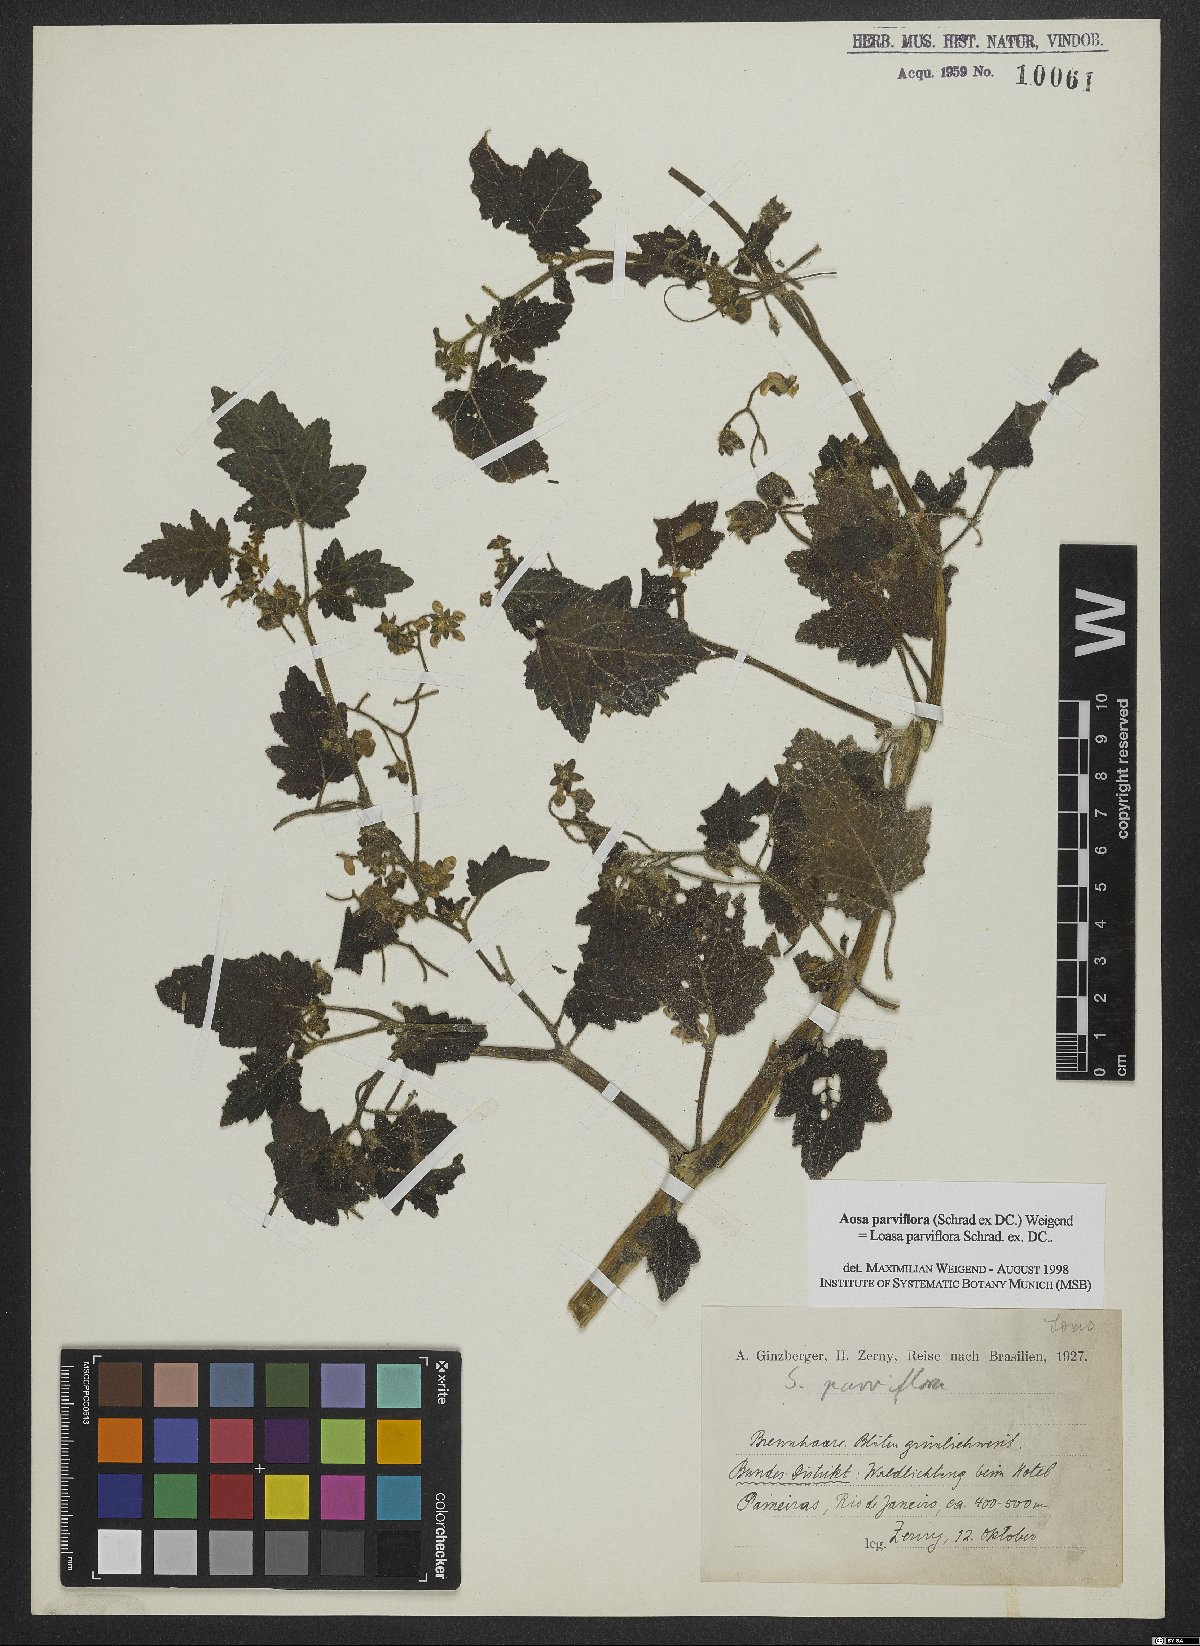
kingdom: Plantae
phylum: Tracheophyta
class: Magnoliopsida
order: Cornales
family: Loasaceae
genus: Aosa
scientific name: Aosa parviflora
